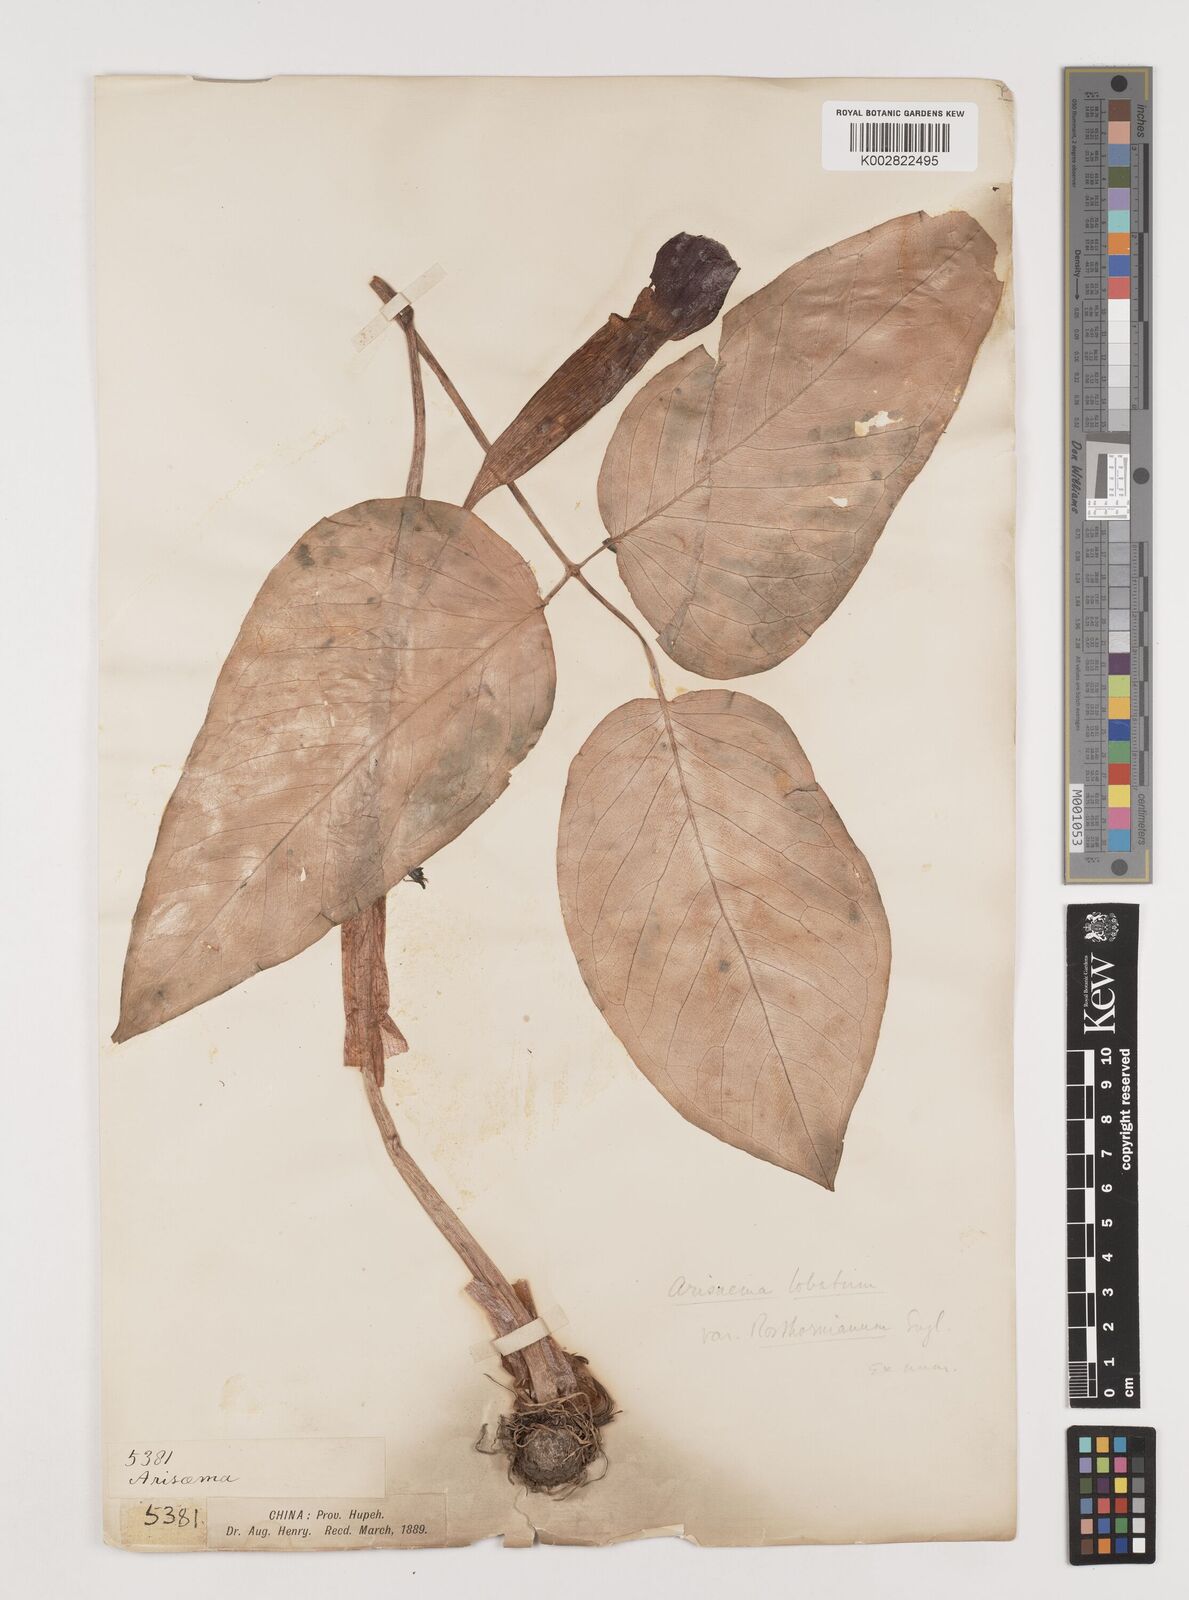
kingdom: Plantae
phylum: Tracheophyta
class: Liliopsida
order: Alismatales
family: Araceae
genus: Arisaema
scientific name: Arisaema lobatum
